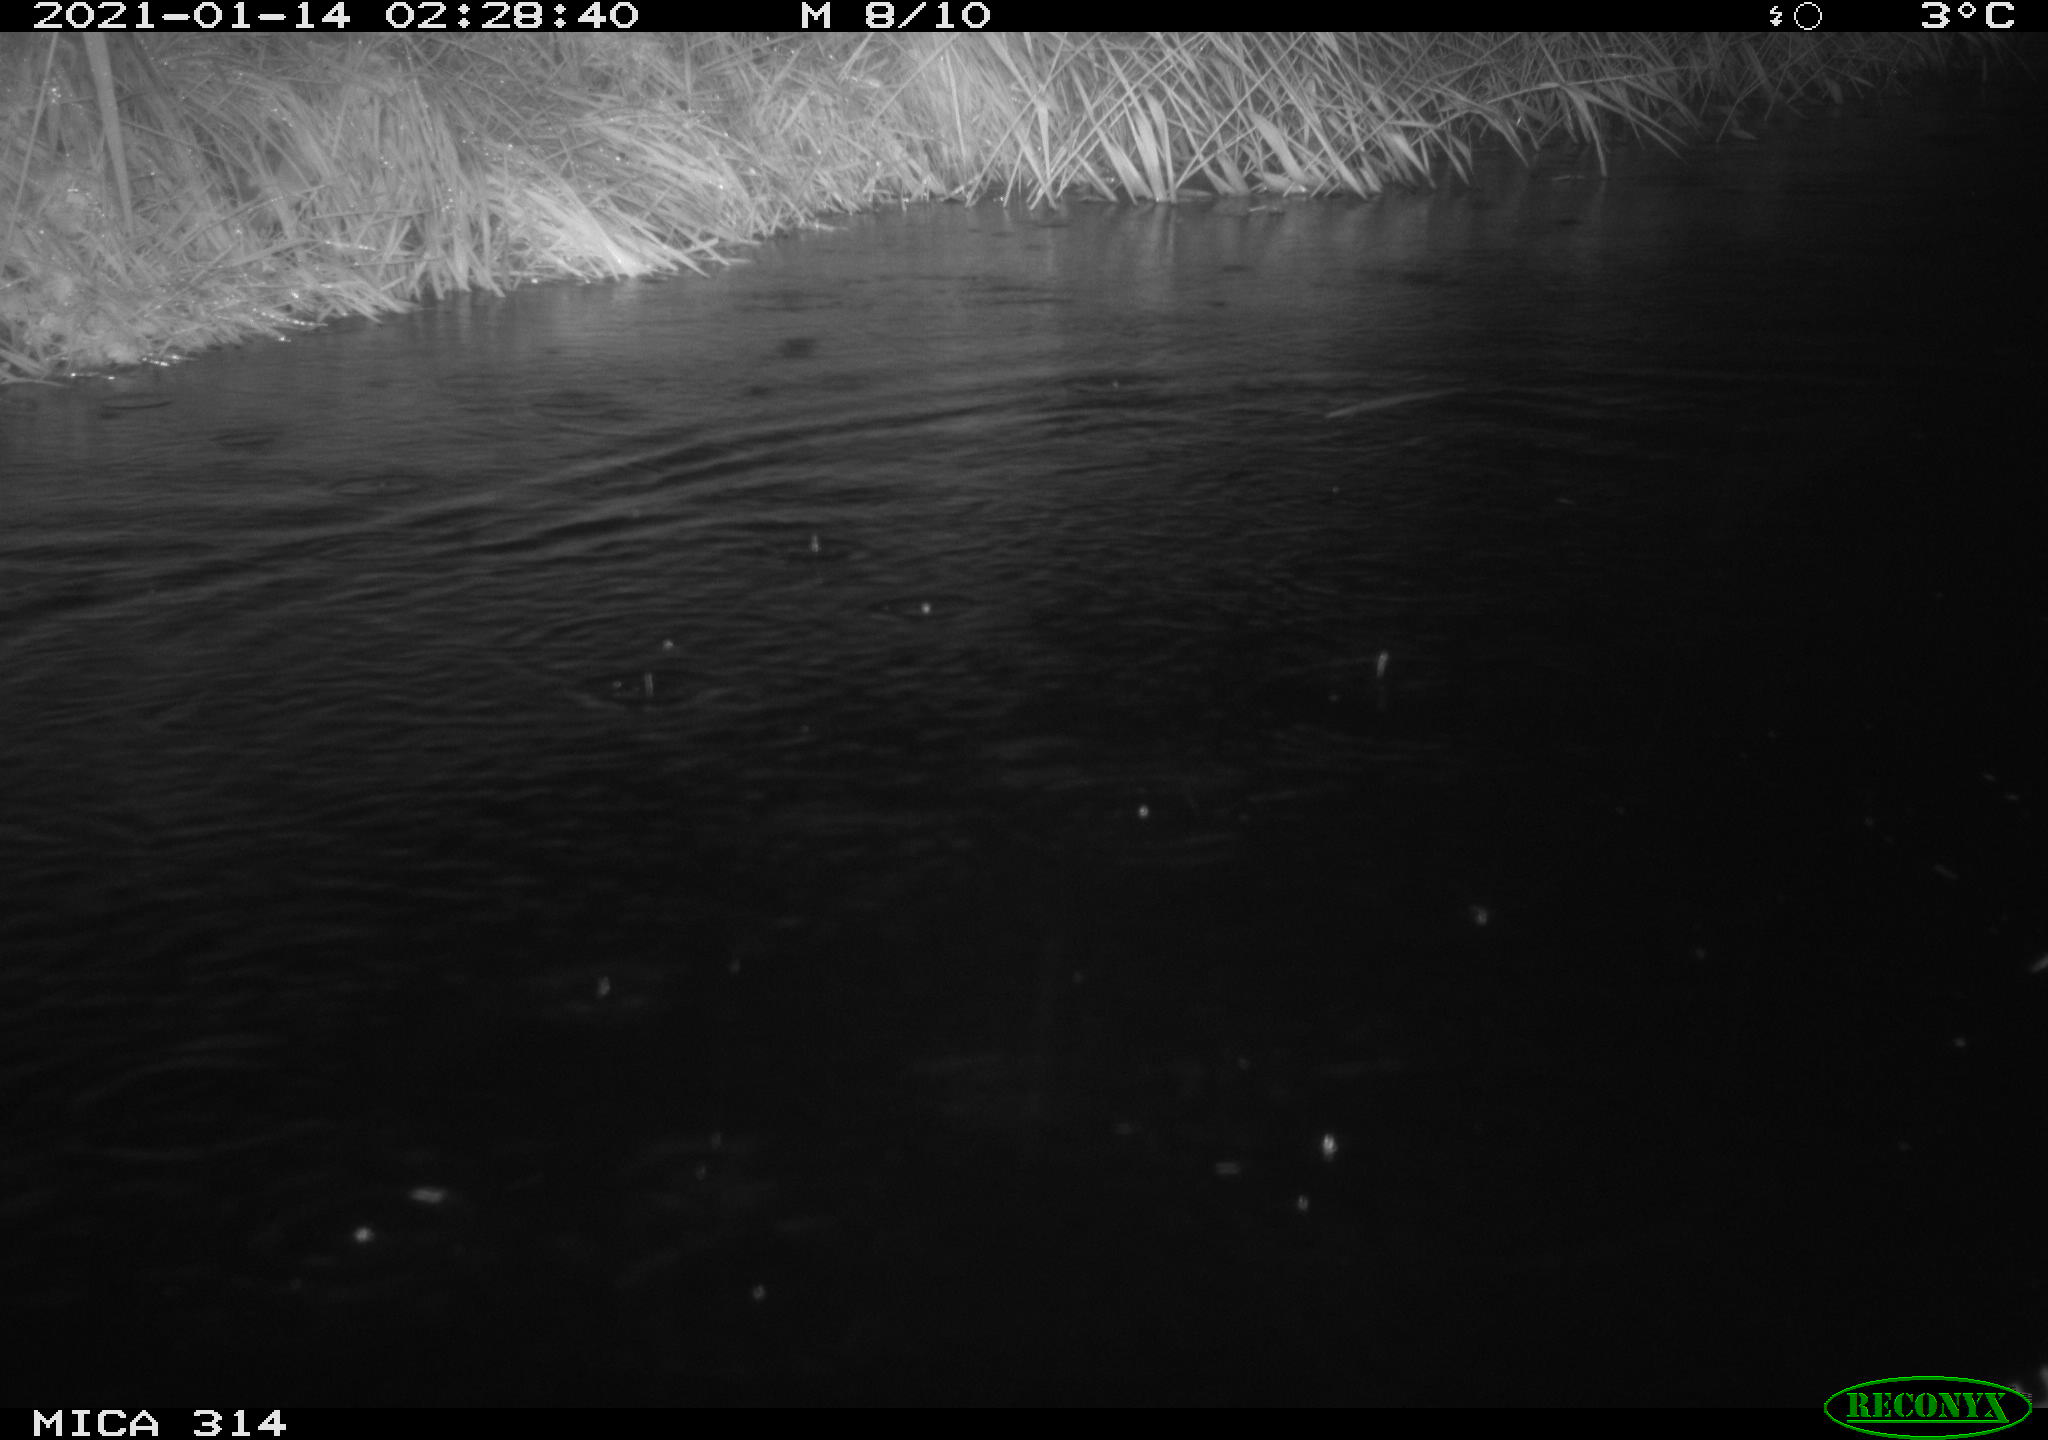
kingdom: Animalia
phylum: Chordata
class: Mammalia
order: Rodentia
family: Muridae
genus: Rattus
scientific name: Rattus norvegicus
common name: Brown rat
